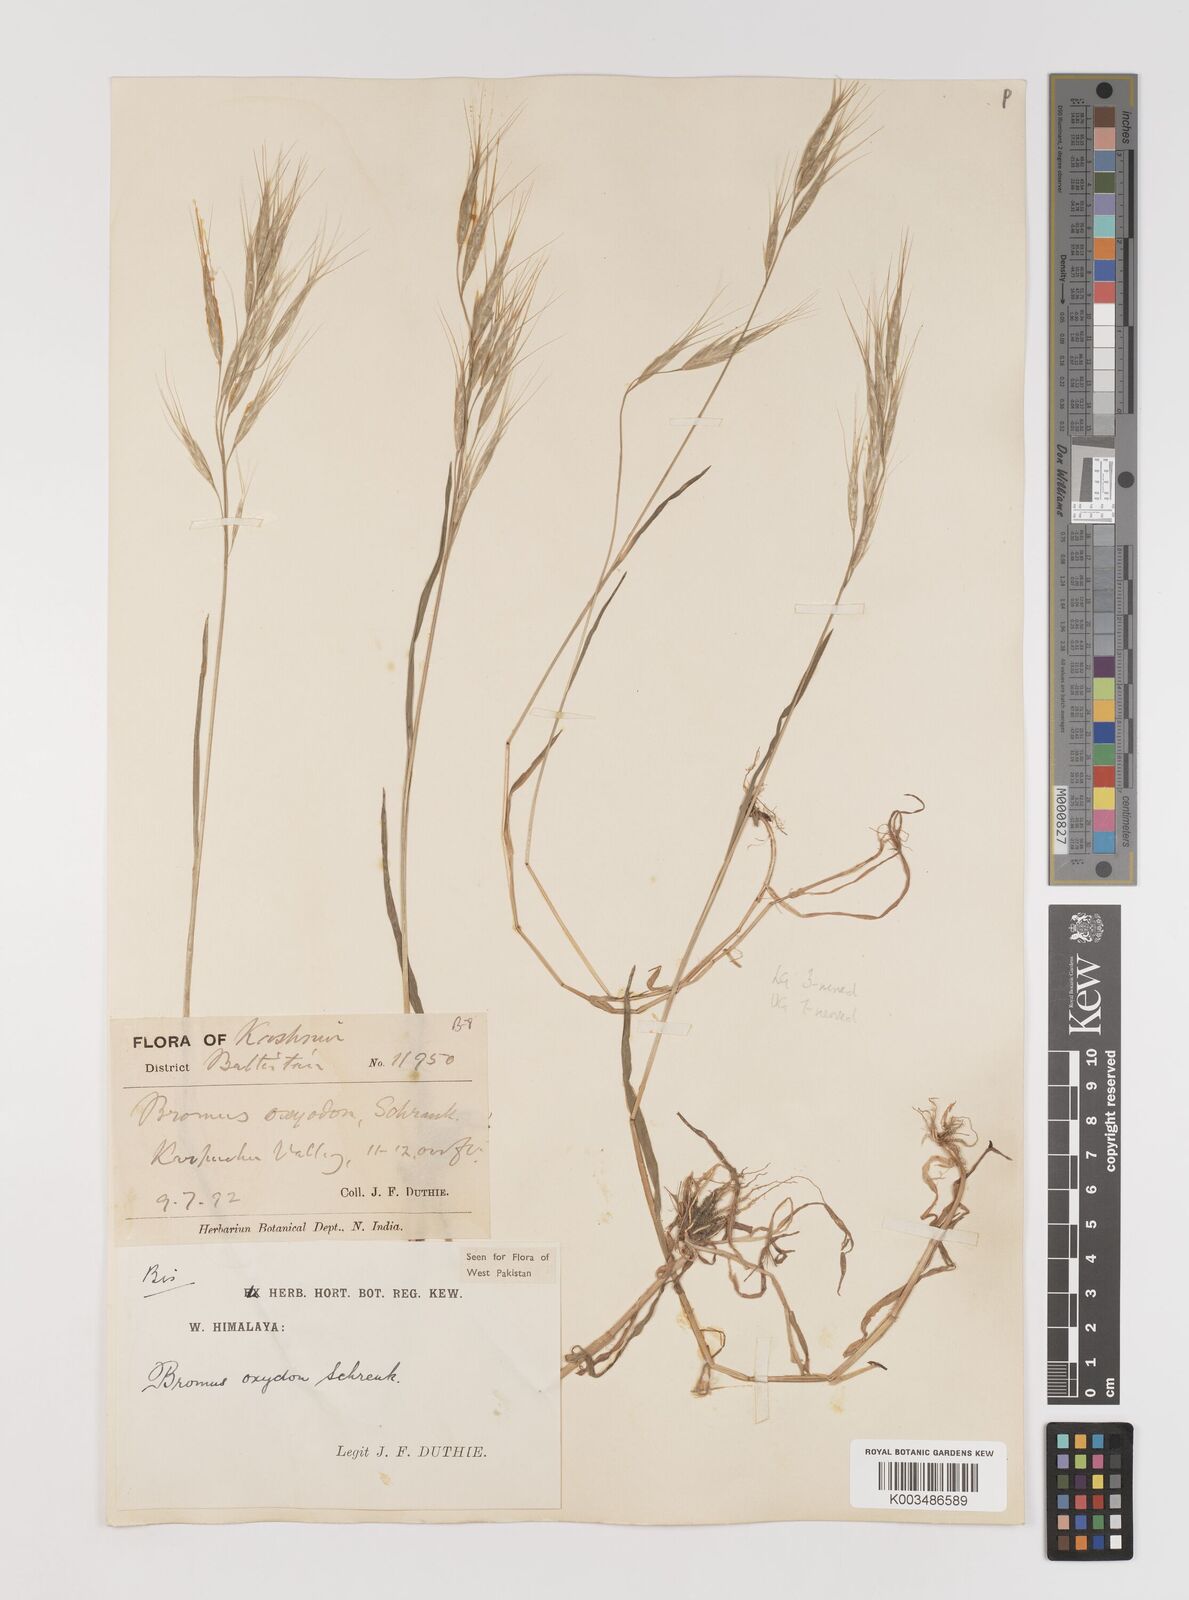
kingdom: Plantae
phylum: Tracheophyta
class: Liliopsida
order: Poales
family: Poaceae
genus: Bromus
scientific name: Bromus oxyodon
